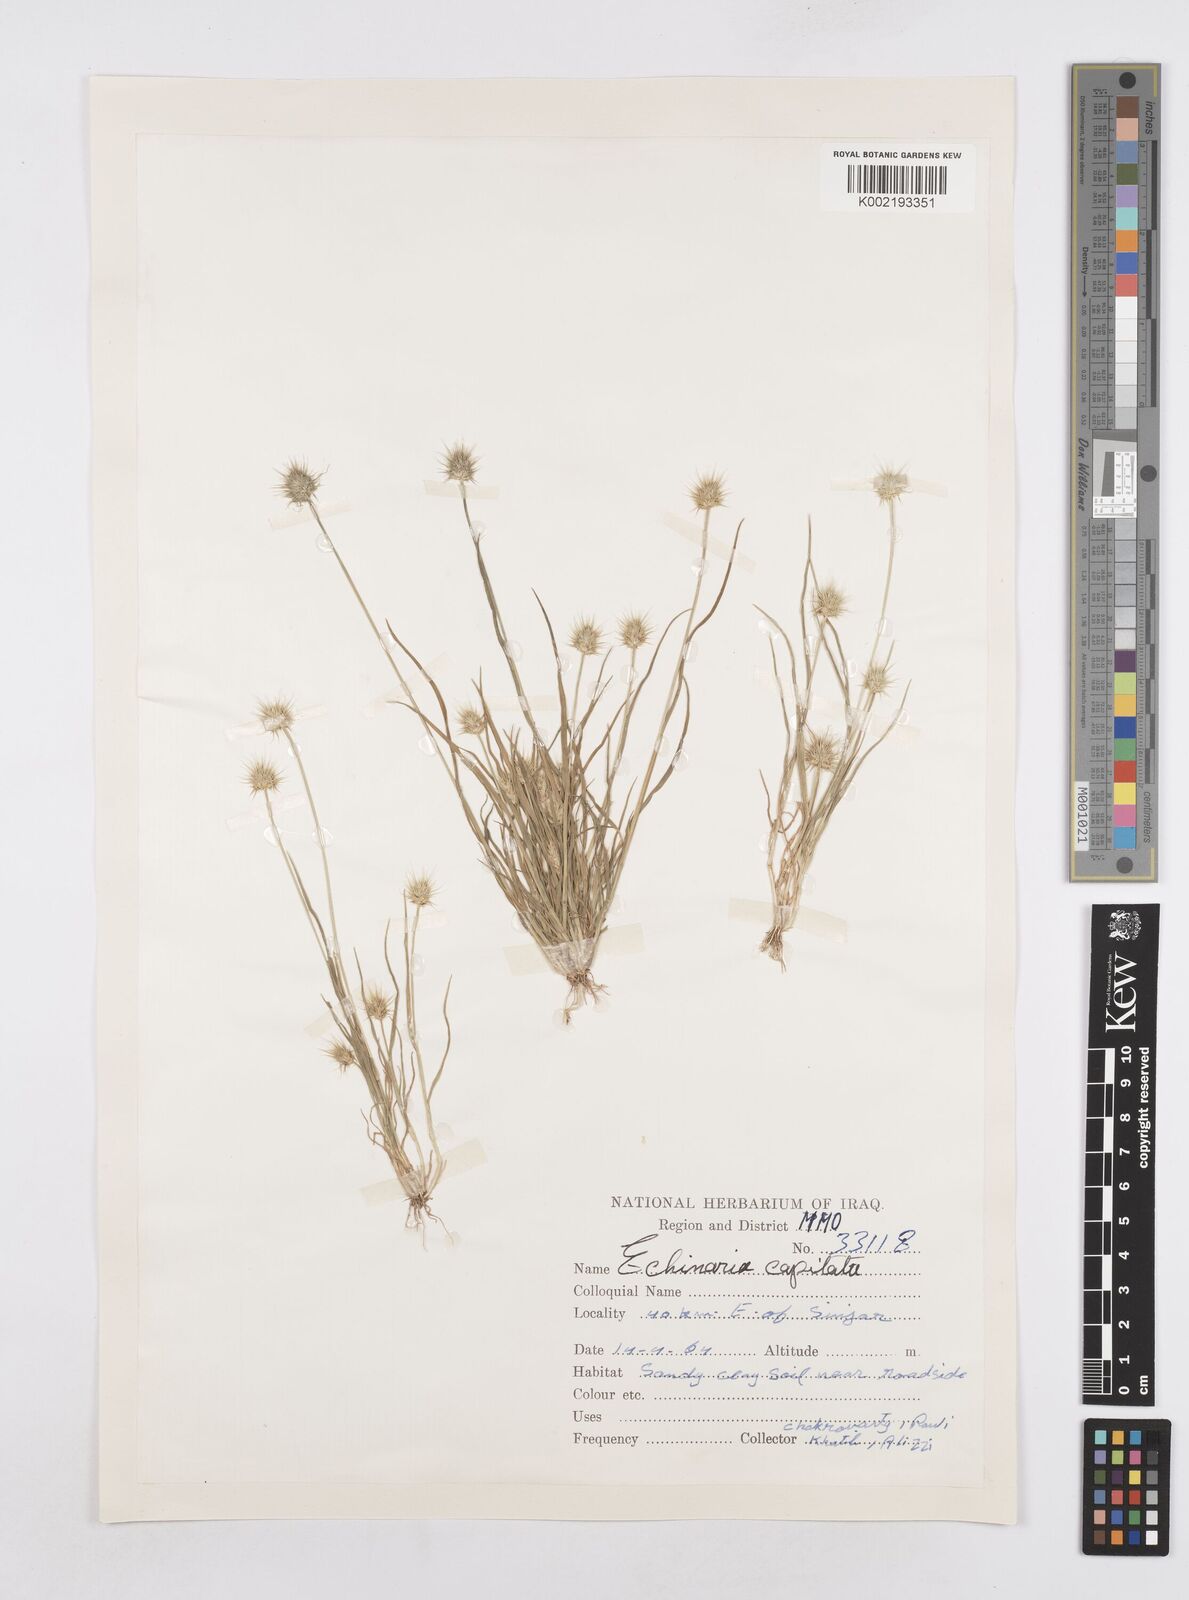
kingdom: Plantae
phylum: Tracheophyta
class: Liliopsida
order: Poales
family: Poaceae
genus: Echinaria
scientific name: Echinaria capitata
